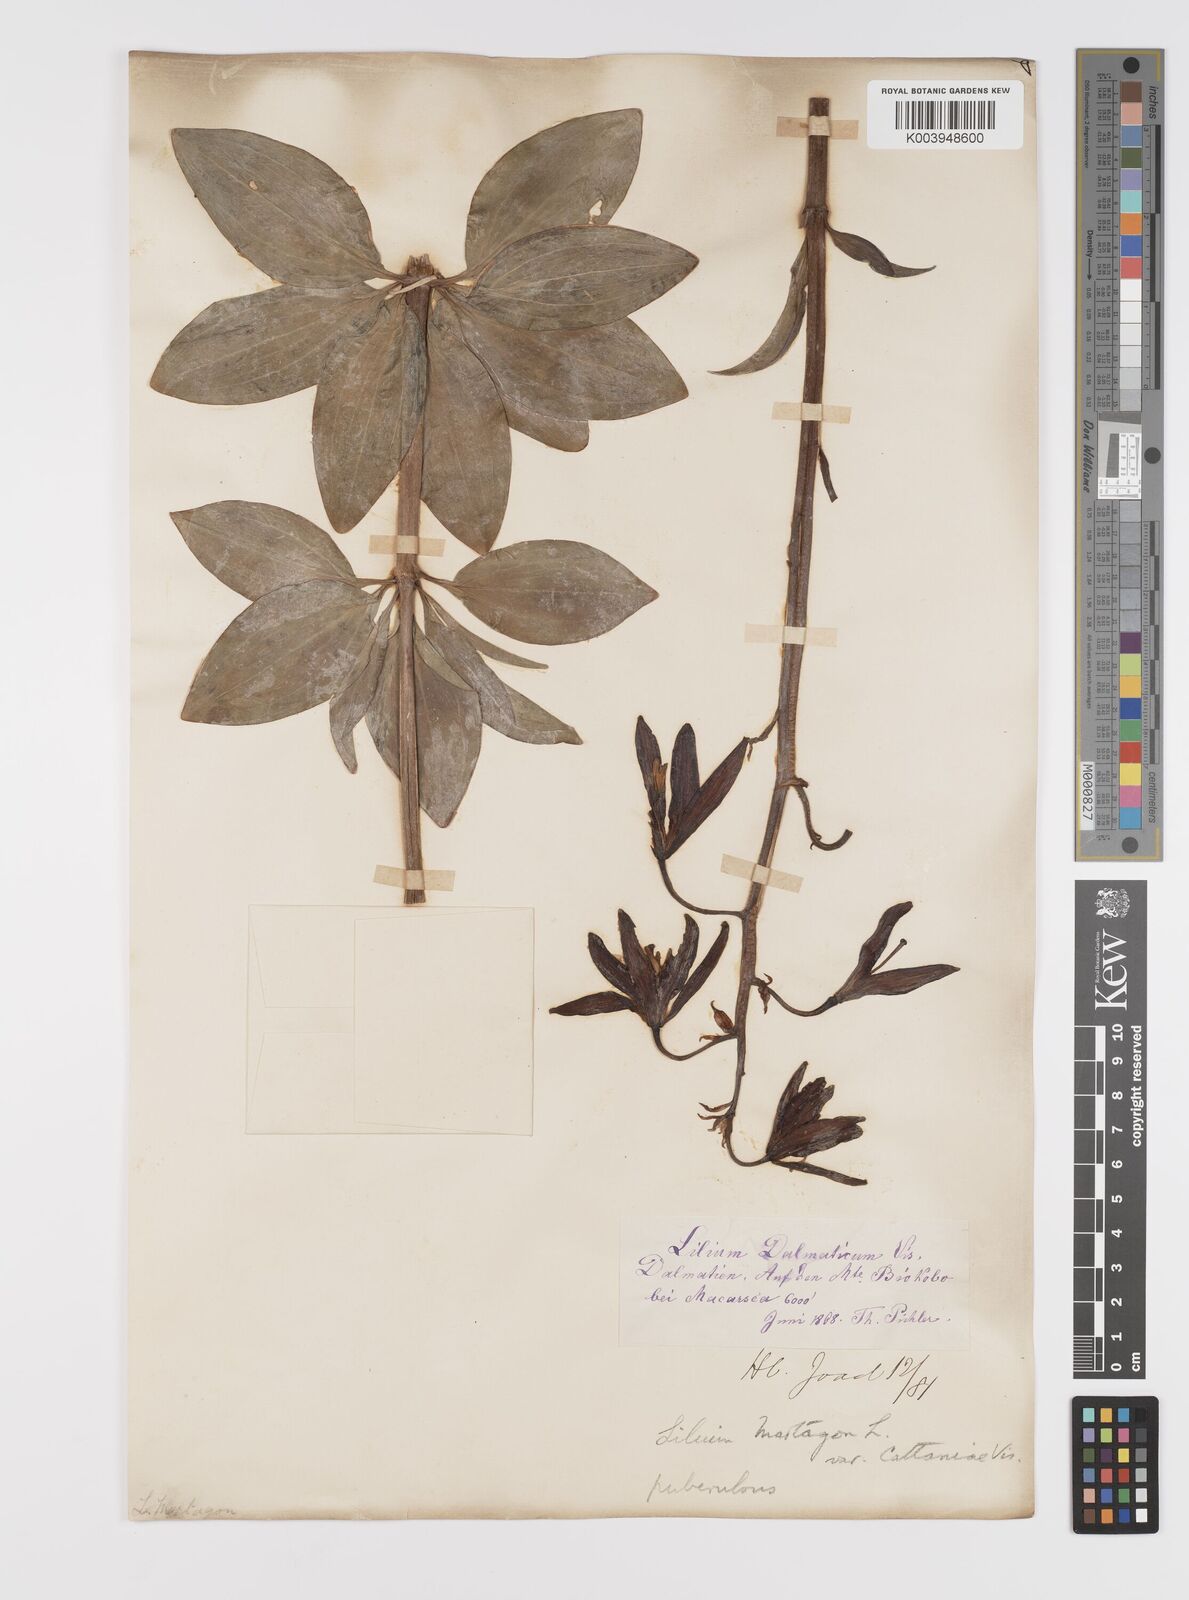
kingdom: Plantae
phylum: Tracheophyta
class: Liliopsida
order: Liliales
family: Liliaceae
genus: Lilium
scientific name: Lilium martagon
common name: Martagon lily
